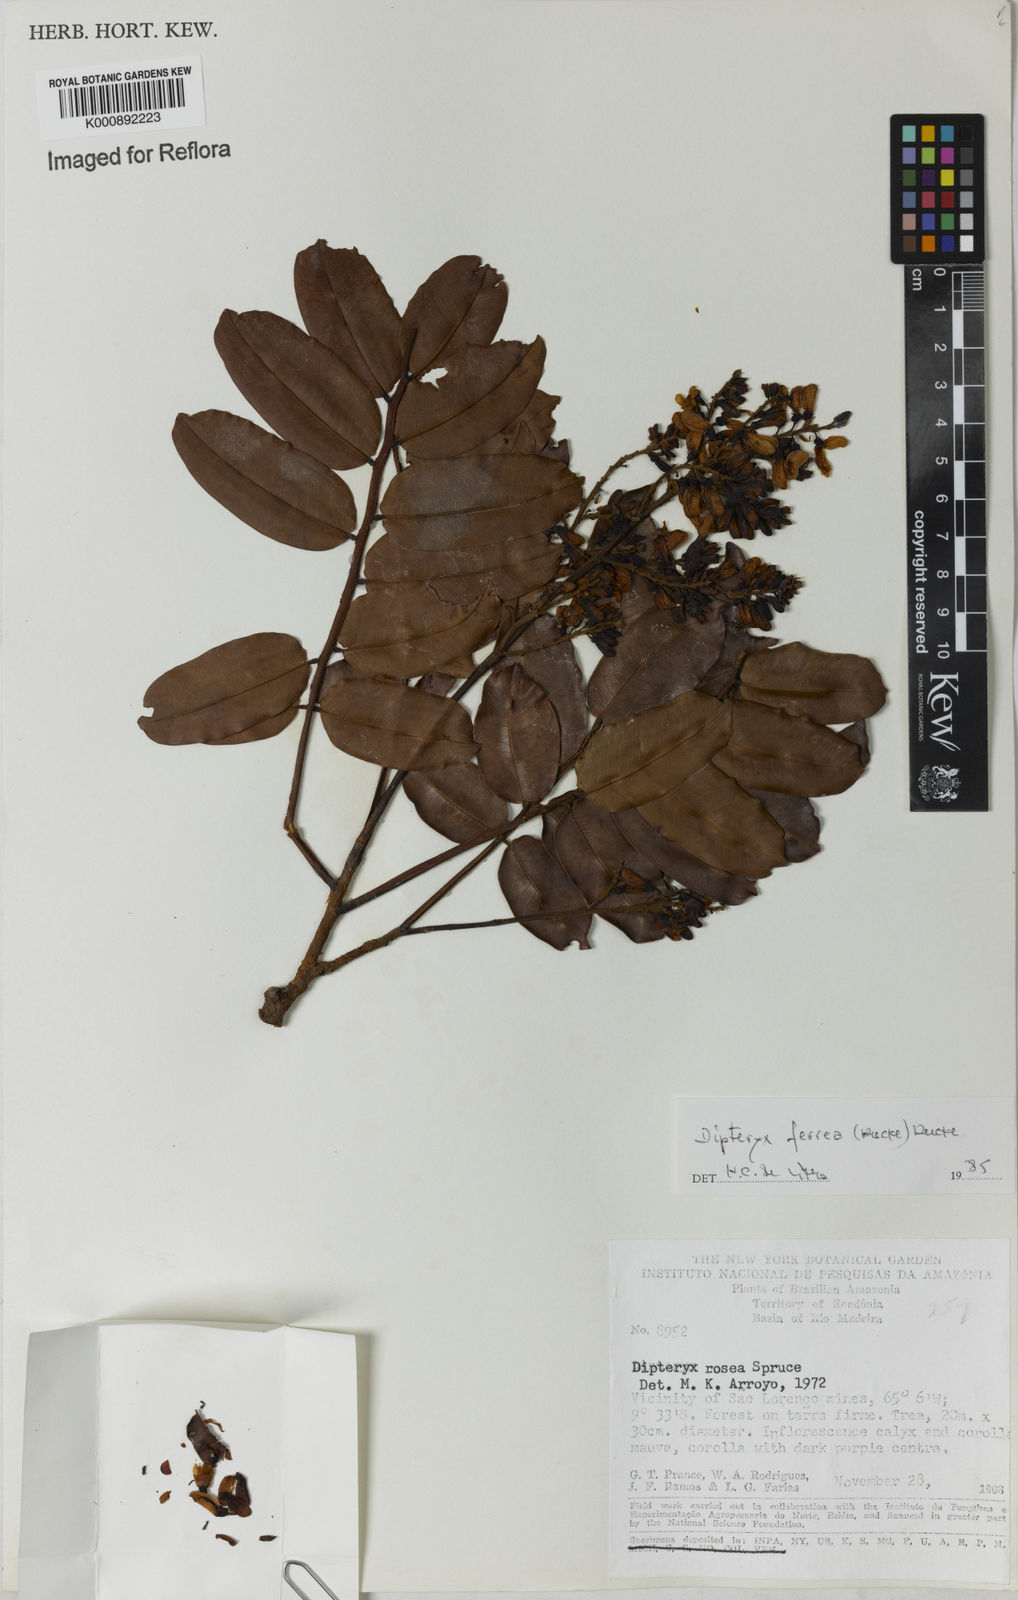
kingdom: Plantae
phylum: Tracheophyta
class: Magnoliopsida
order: Fabales
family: Fabaceae
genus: Dipteryx
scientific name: Dipteryx ferrea
